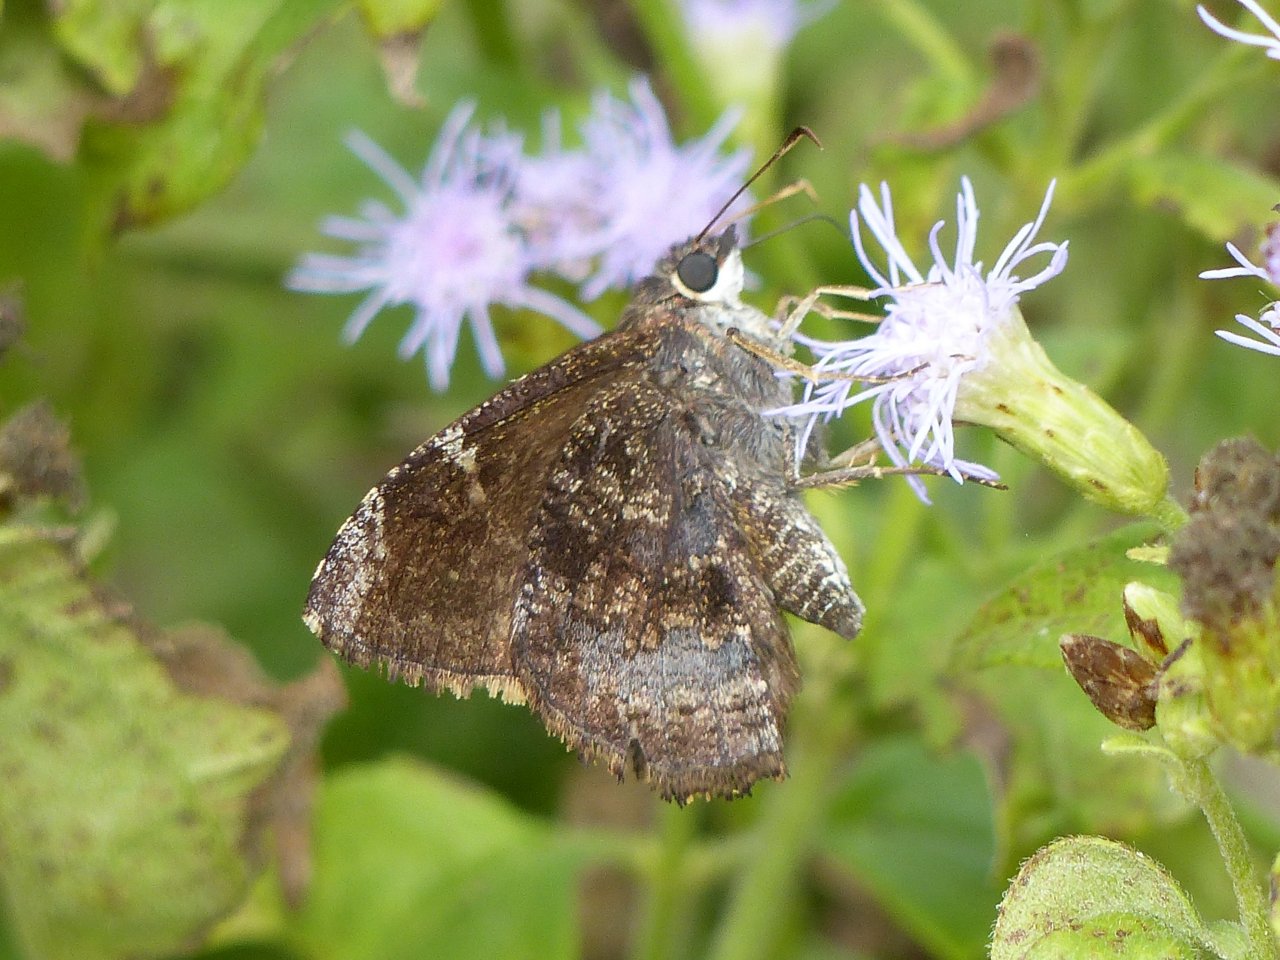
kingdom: Animalia
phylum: Arthropoda
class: Insecta
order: Lepidoptera
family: Hesperiidae
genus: Caicella
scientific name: Caicella calchas
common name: Mimosa Skipper
